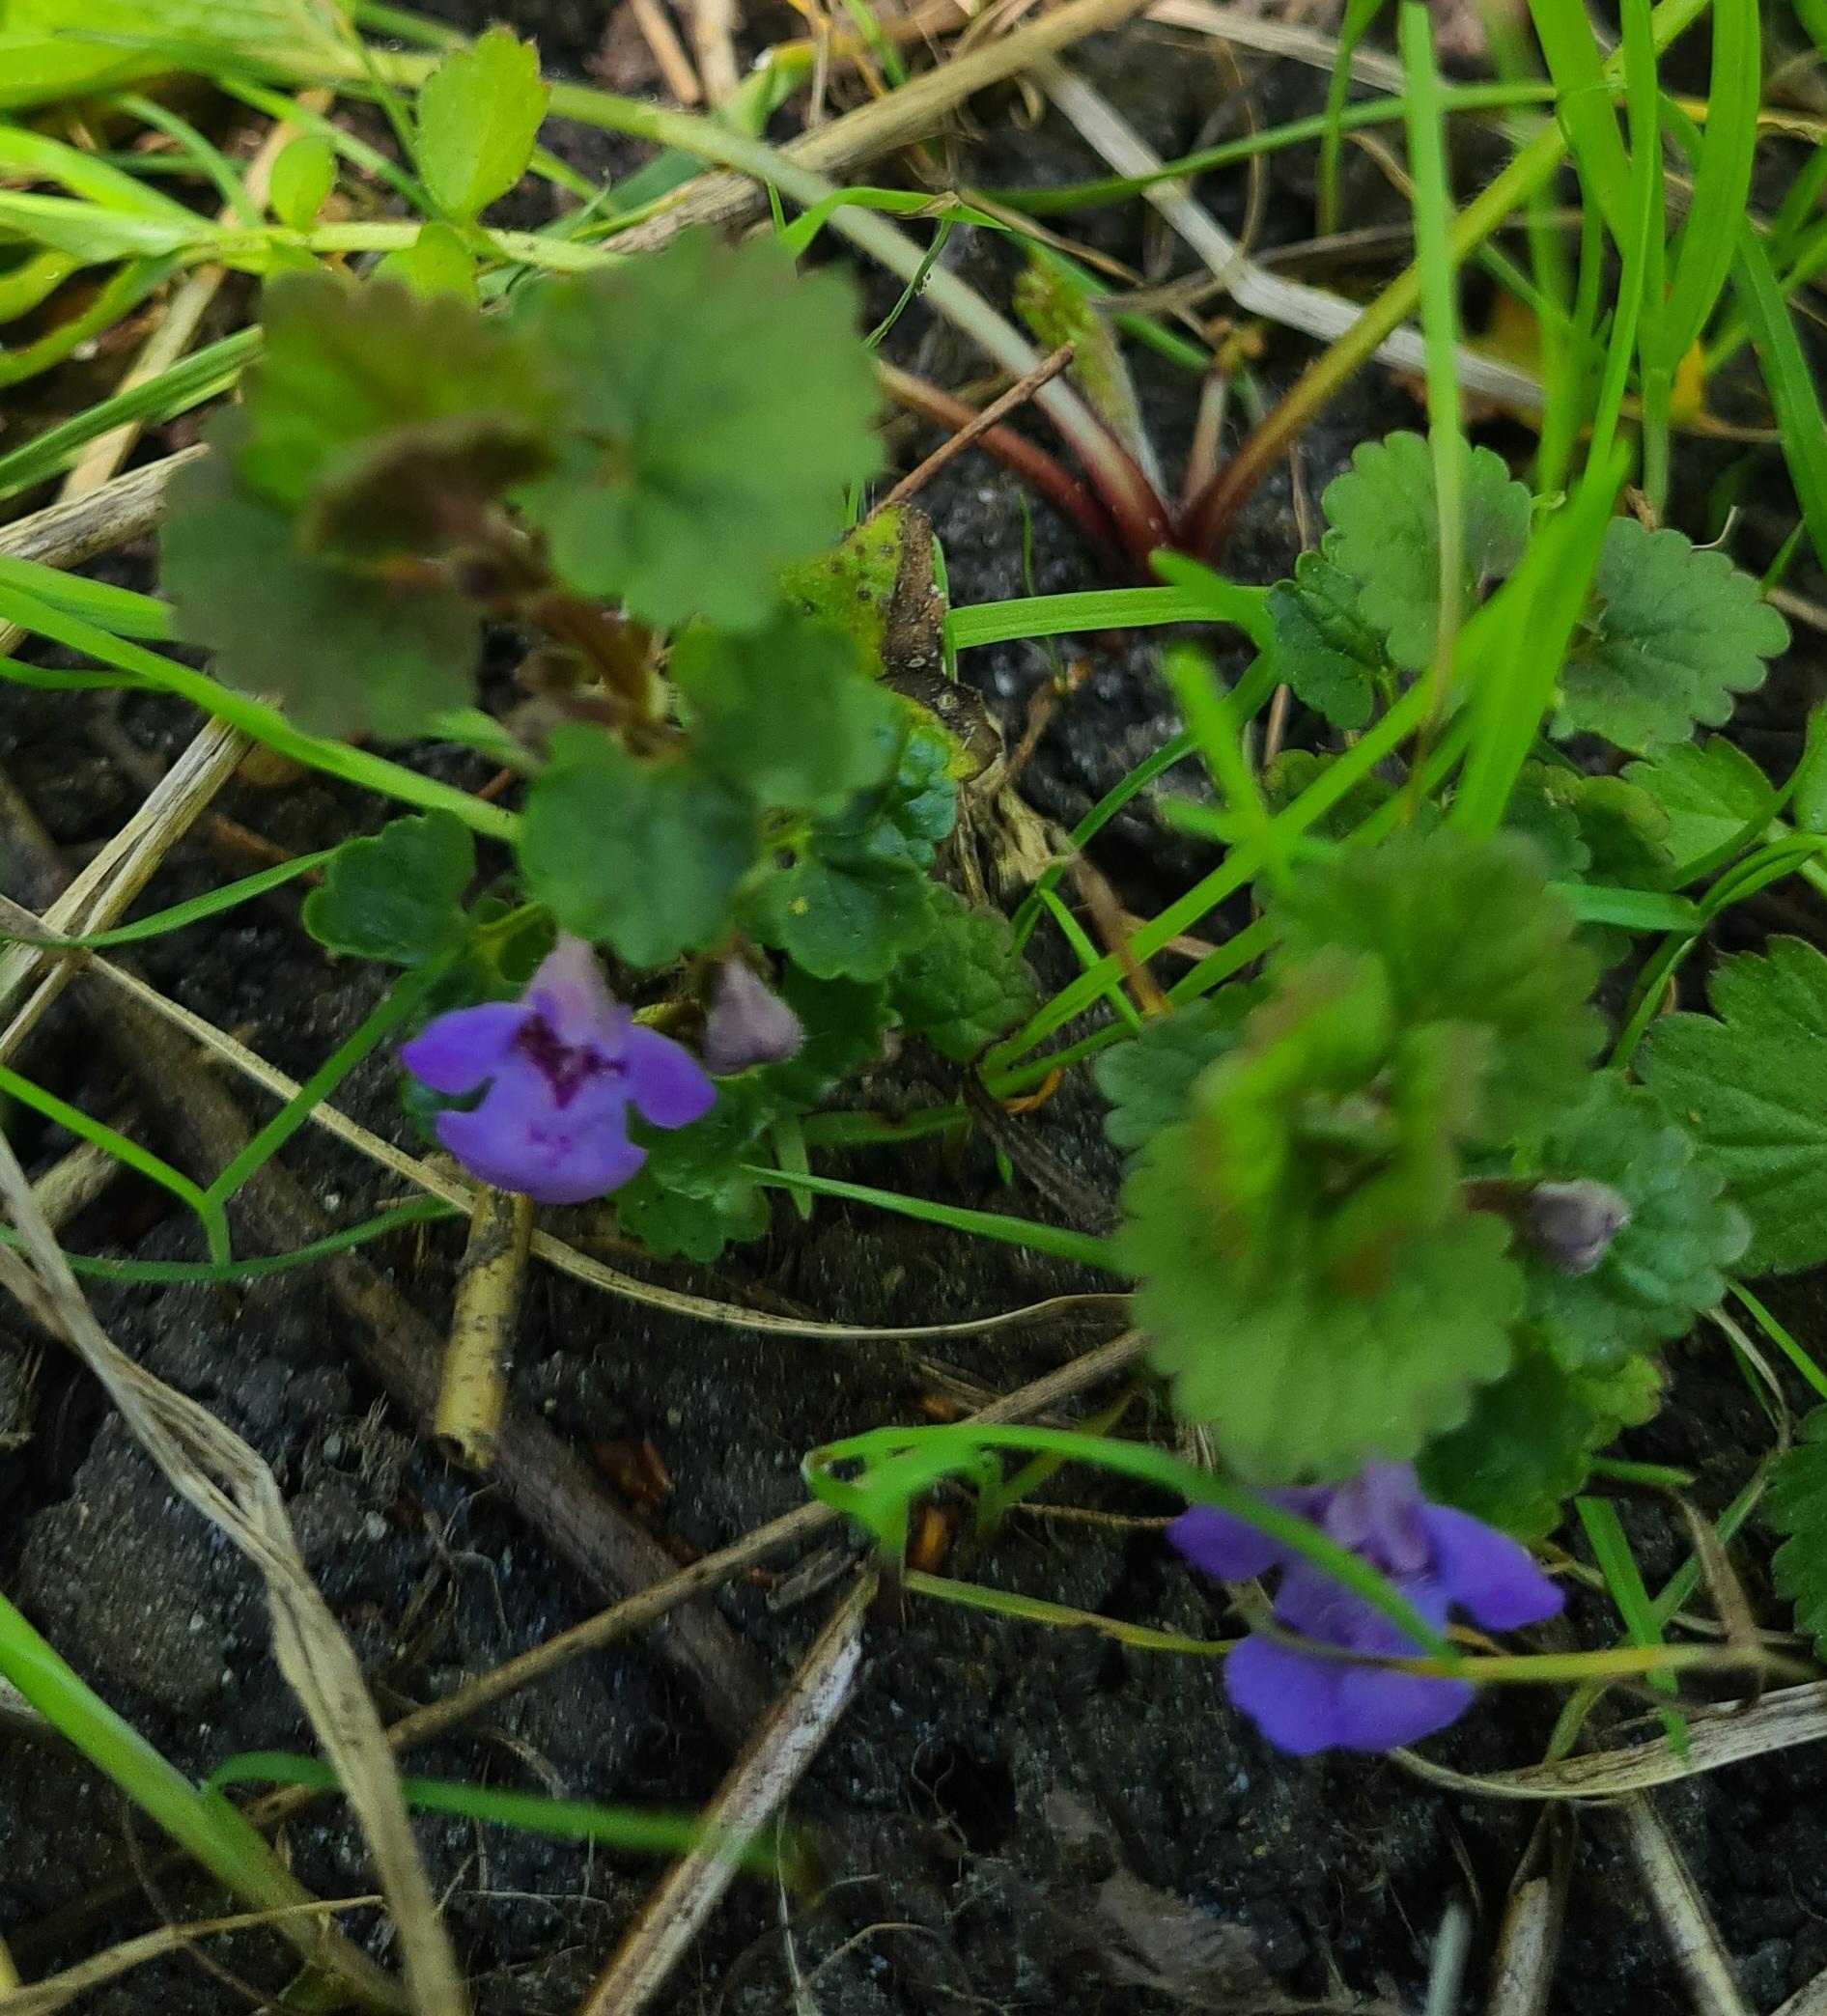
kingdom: Plantae
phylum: Tracheophyta
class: Magnoliopsida
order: Lamiales
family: Lamiaceae
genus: Glechoma
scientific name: Glechoma hederacea
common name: Korsknap
